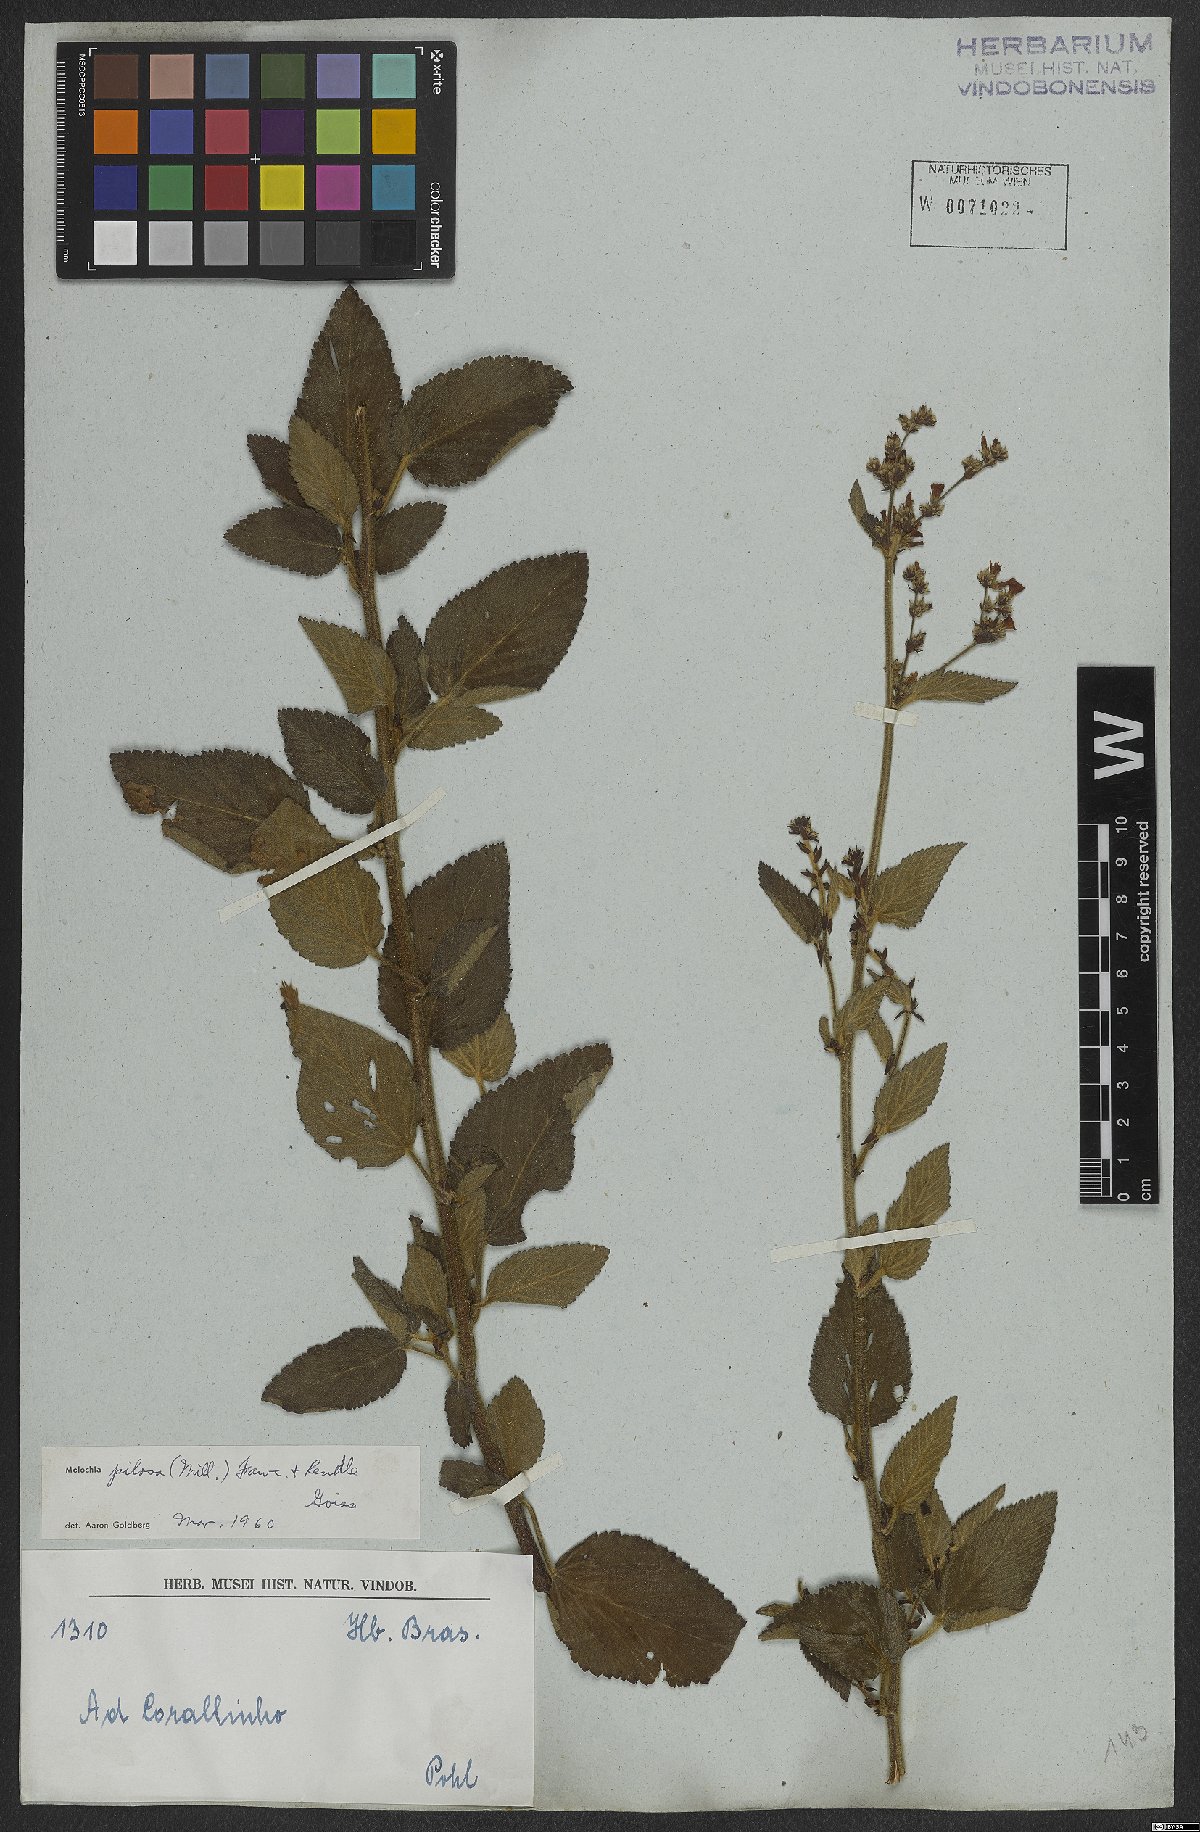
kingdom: Plantae
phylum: Tracheophyta
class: Magnoliopsida
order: Malvales
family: Malvaceae
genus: Melochia
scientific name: Melochia pilosa
